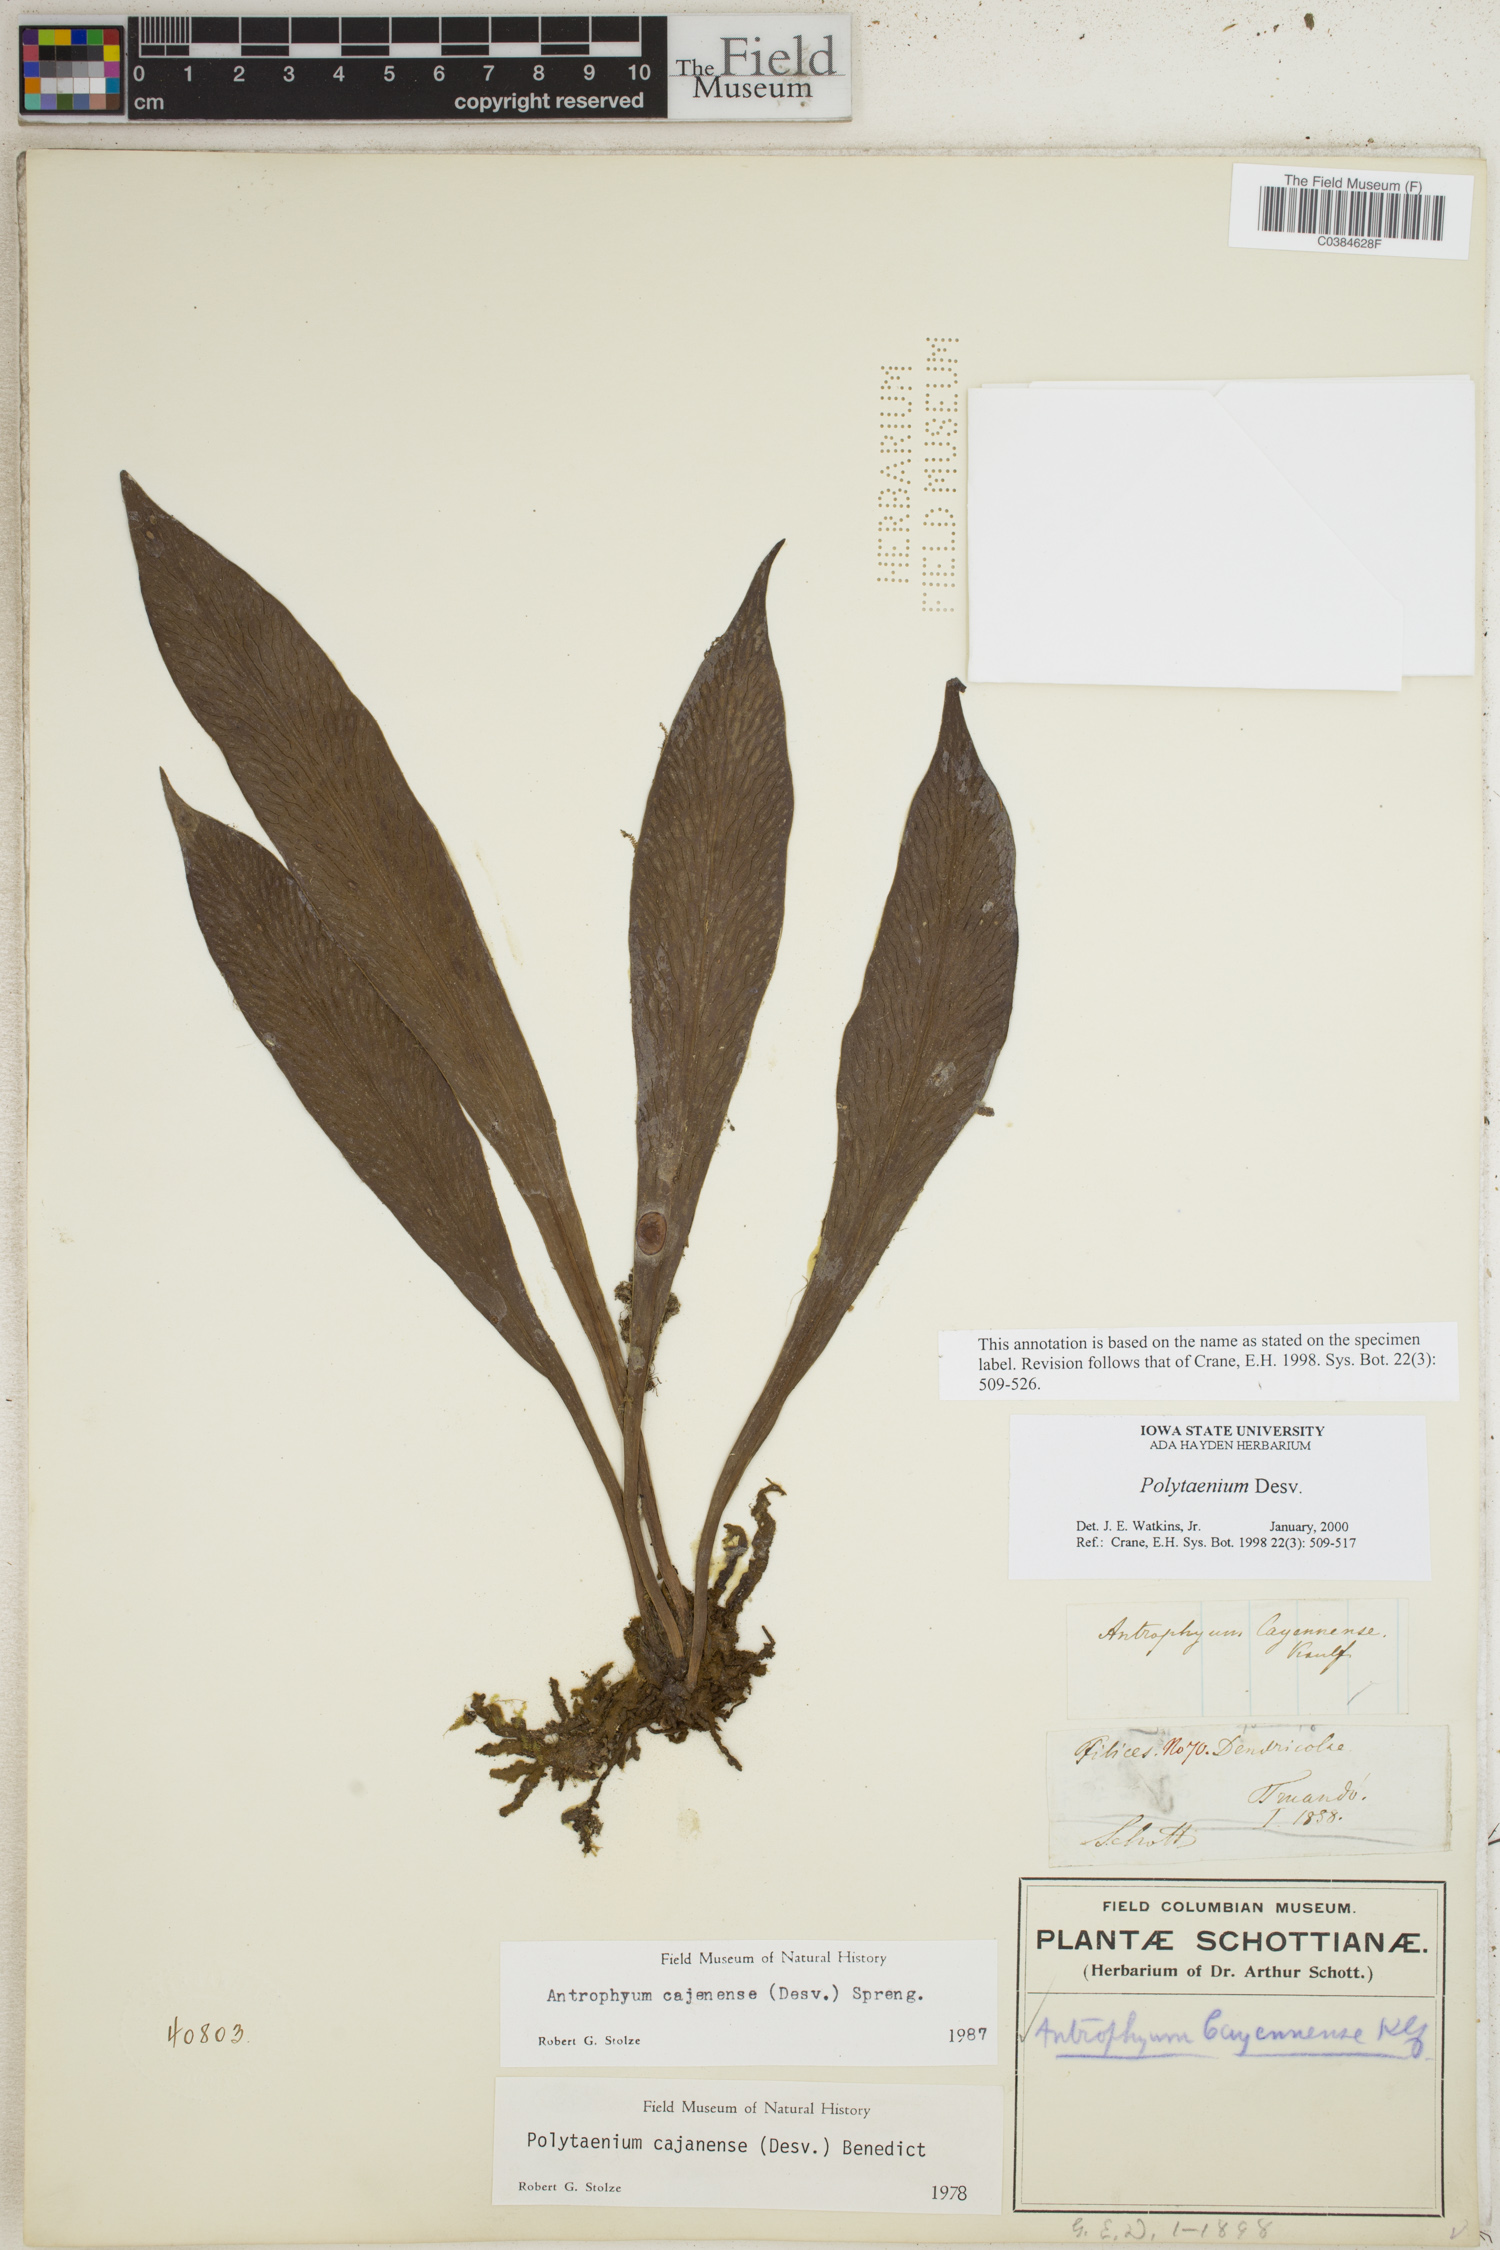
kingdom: Plantae
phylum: Tracheophyta
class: Polypodiopsida
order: Polypodiales
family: Pteridaceae
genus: Polytaenium
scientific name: Polytaenium
